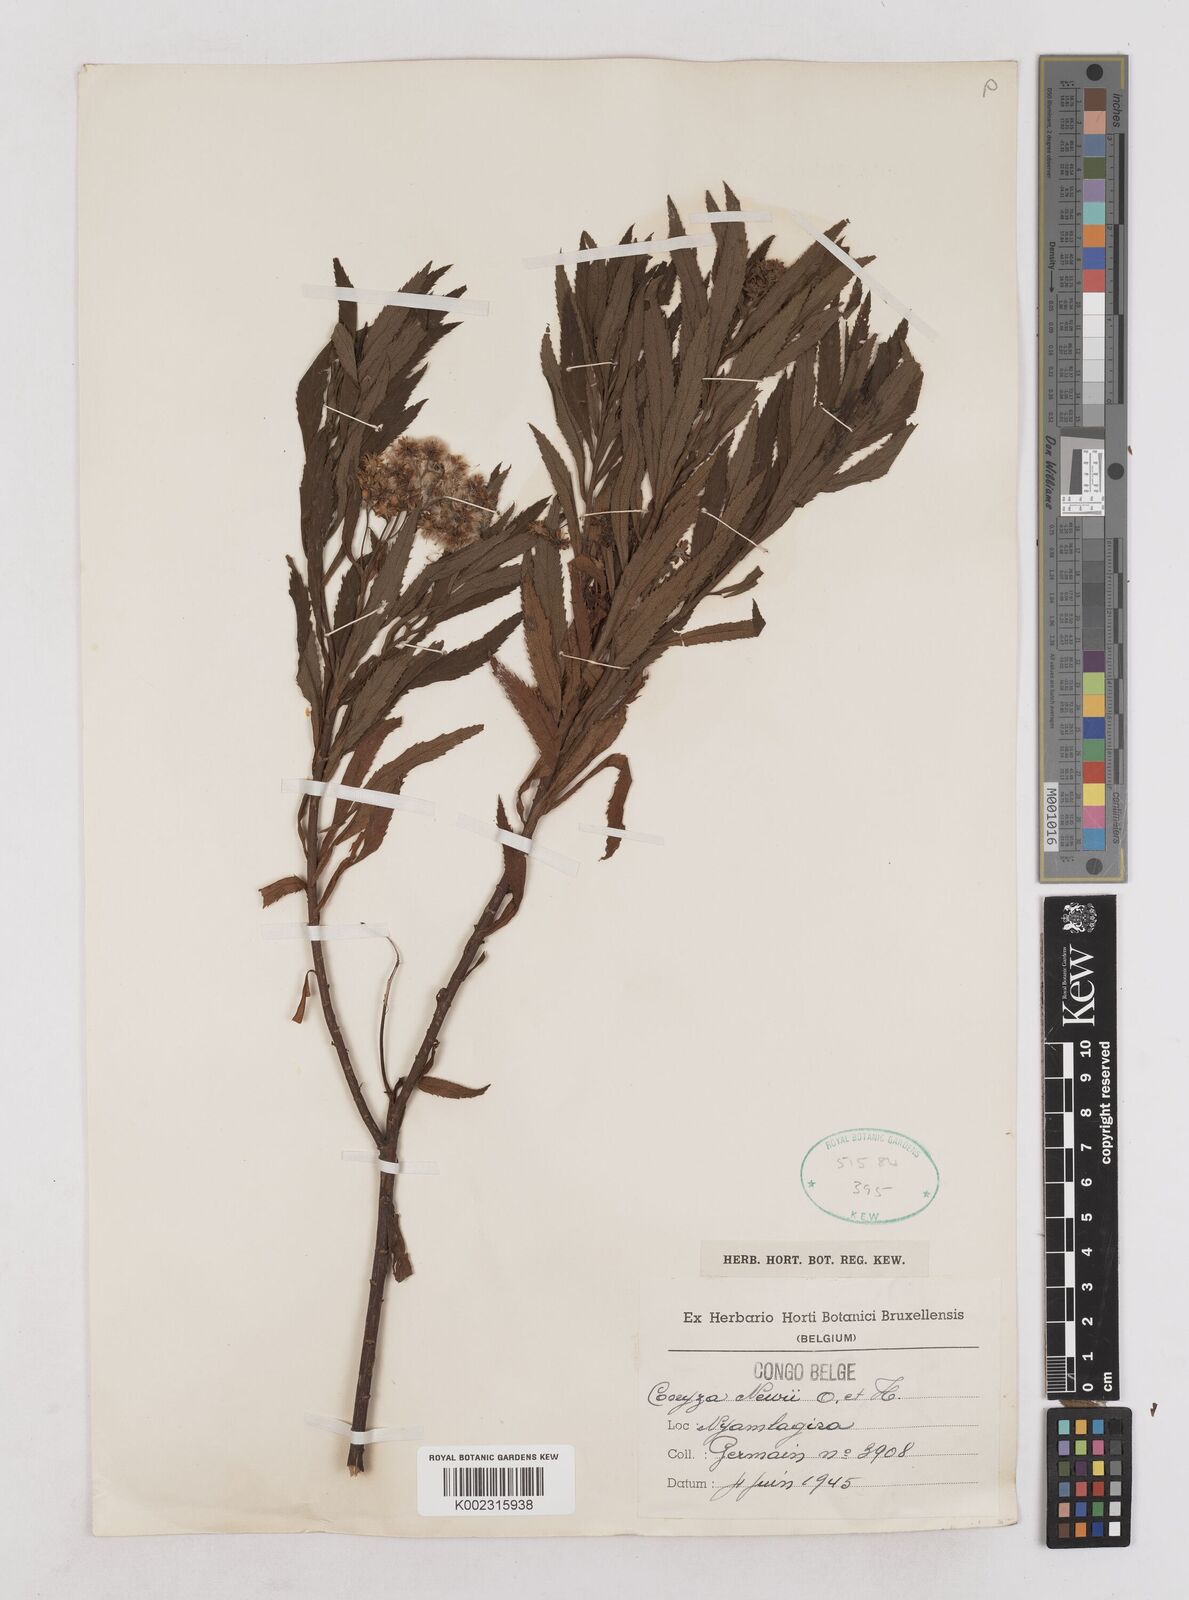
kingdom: Plantae
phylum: Tracheophyta
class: Magnoliopsida
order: Asterales
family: Asteraceae
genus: Conyza
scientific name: Conyza newii
